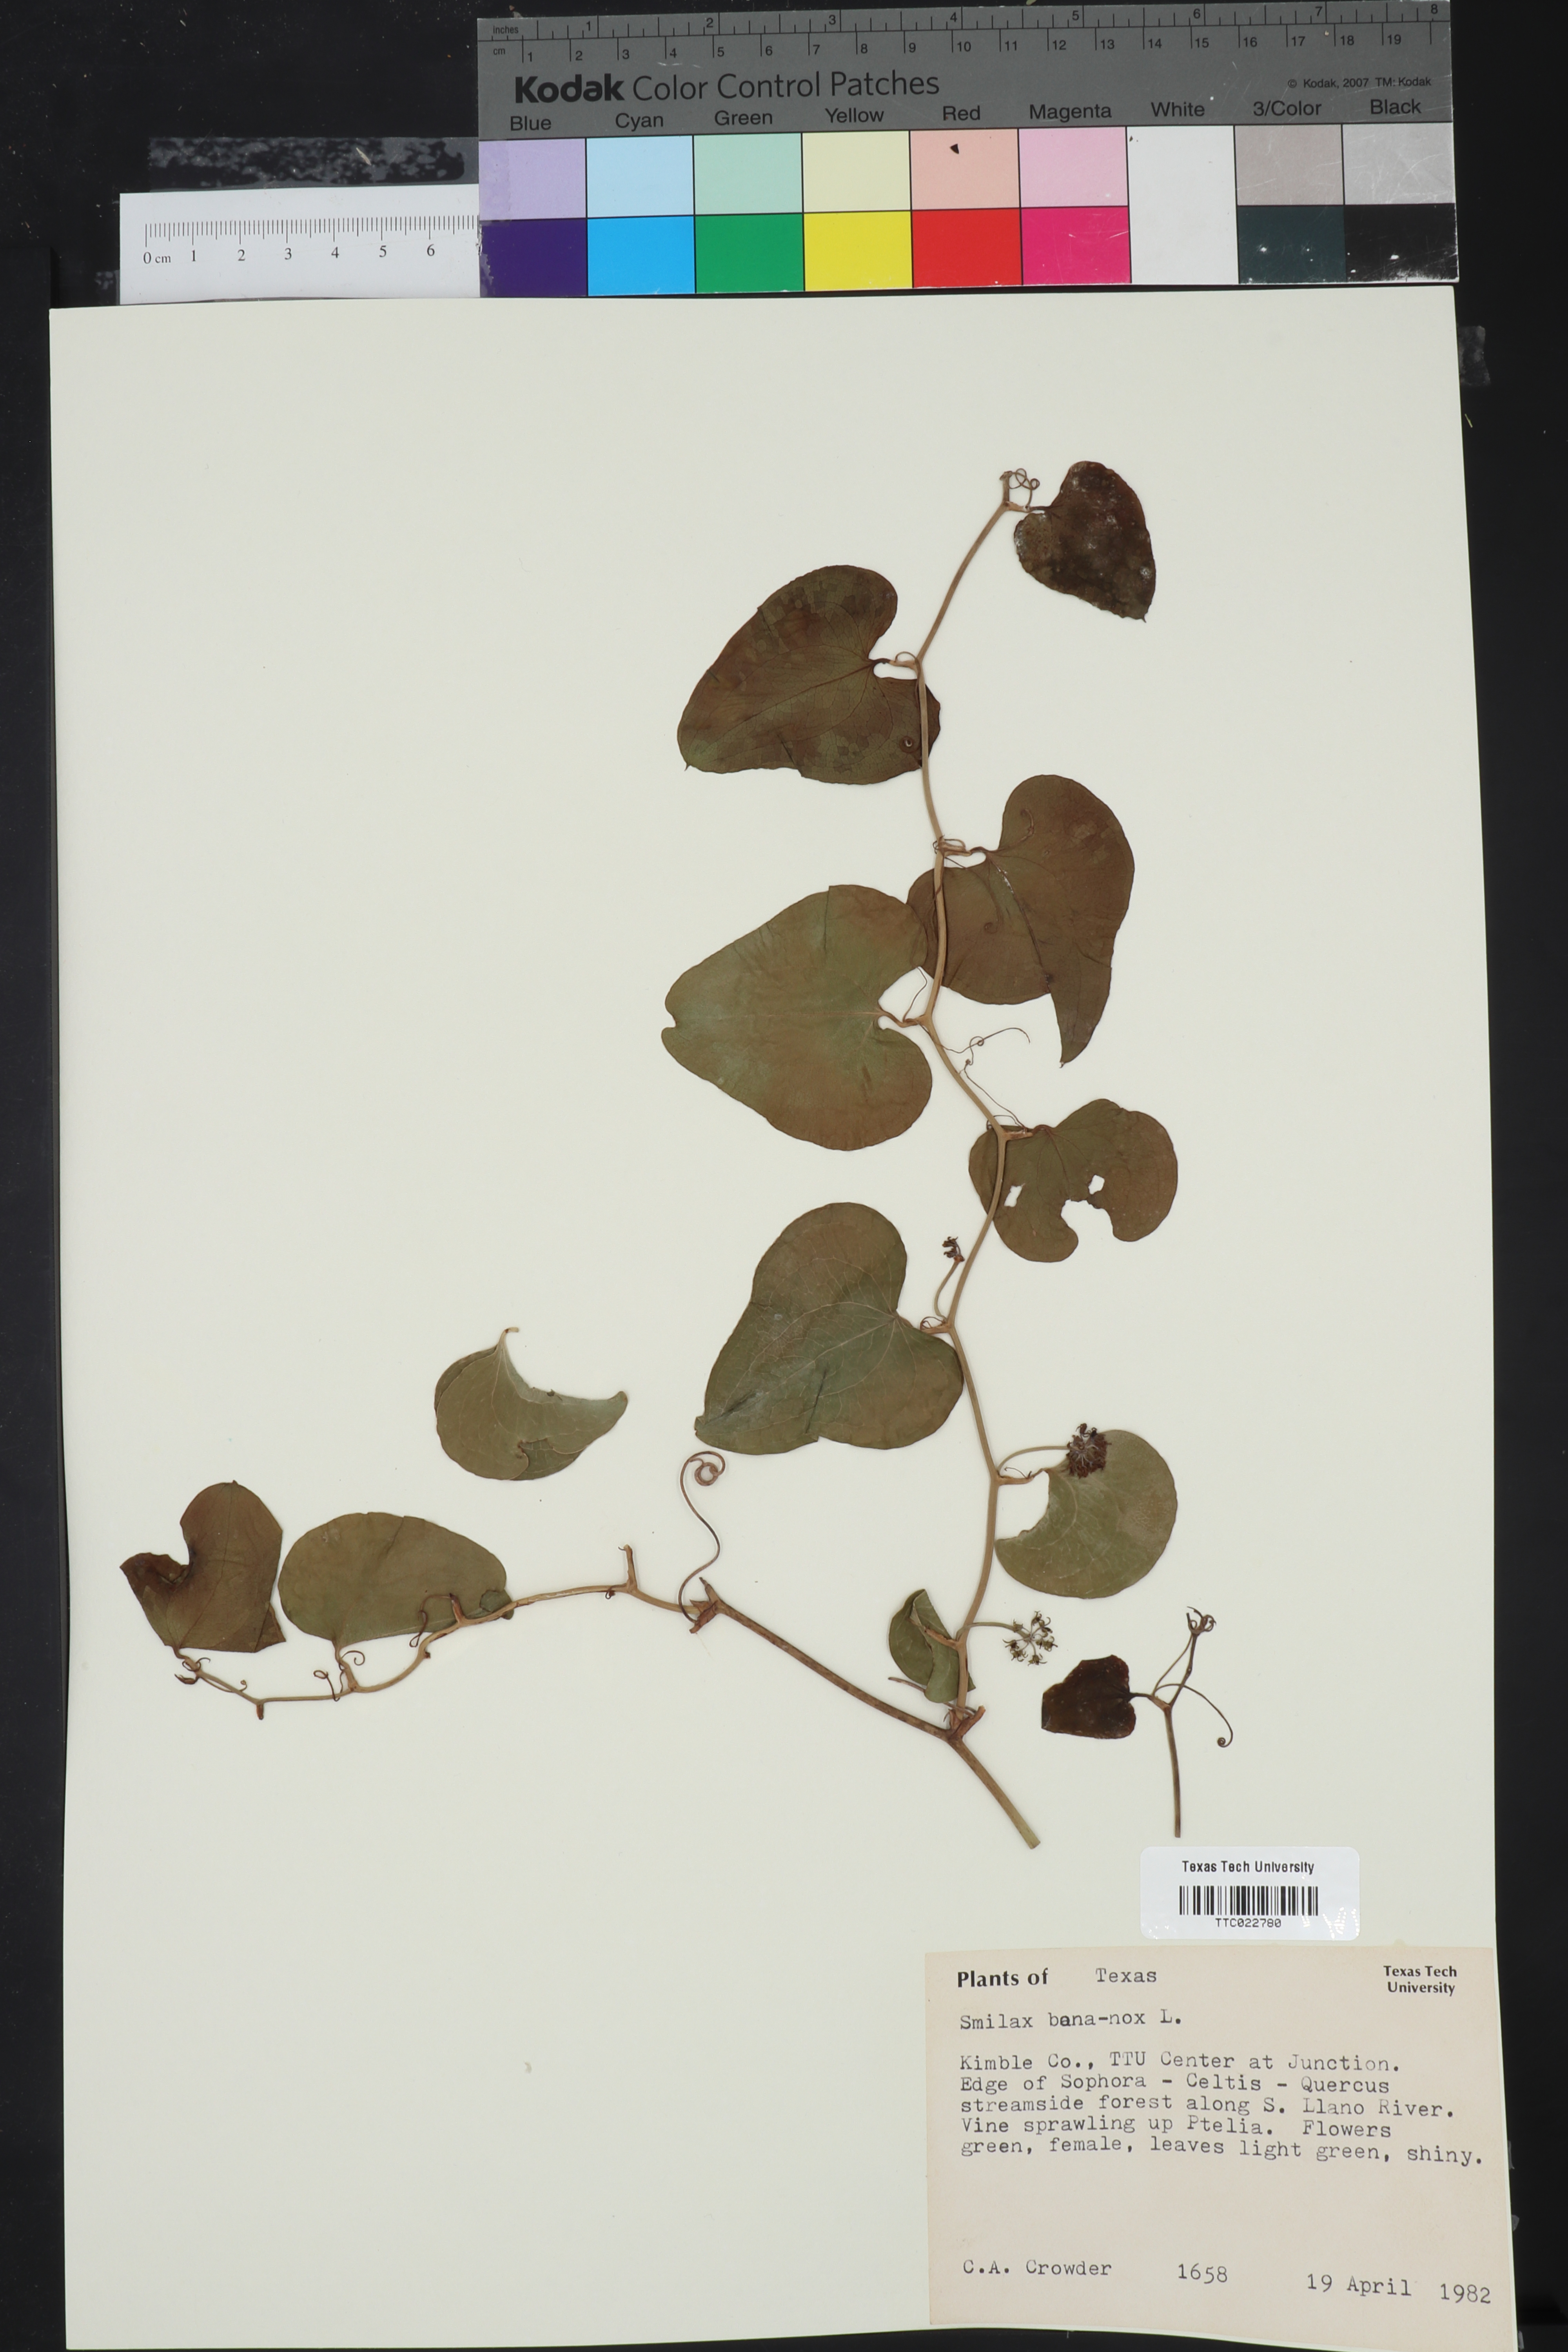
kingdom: Plantae
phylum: Tracheophyta
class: Liliopsida
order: Liliales
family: Smilacaceae
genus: Smilax
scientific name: Smilax bona-nox
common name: Catbrier
